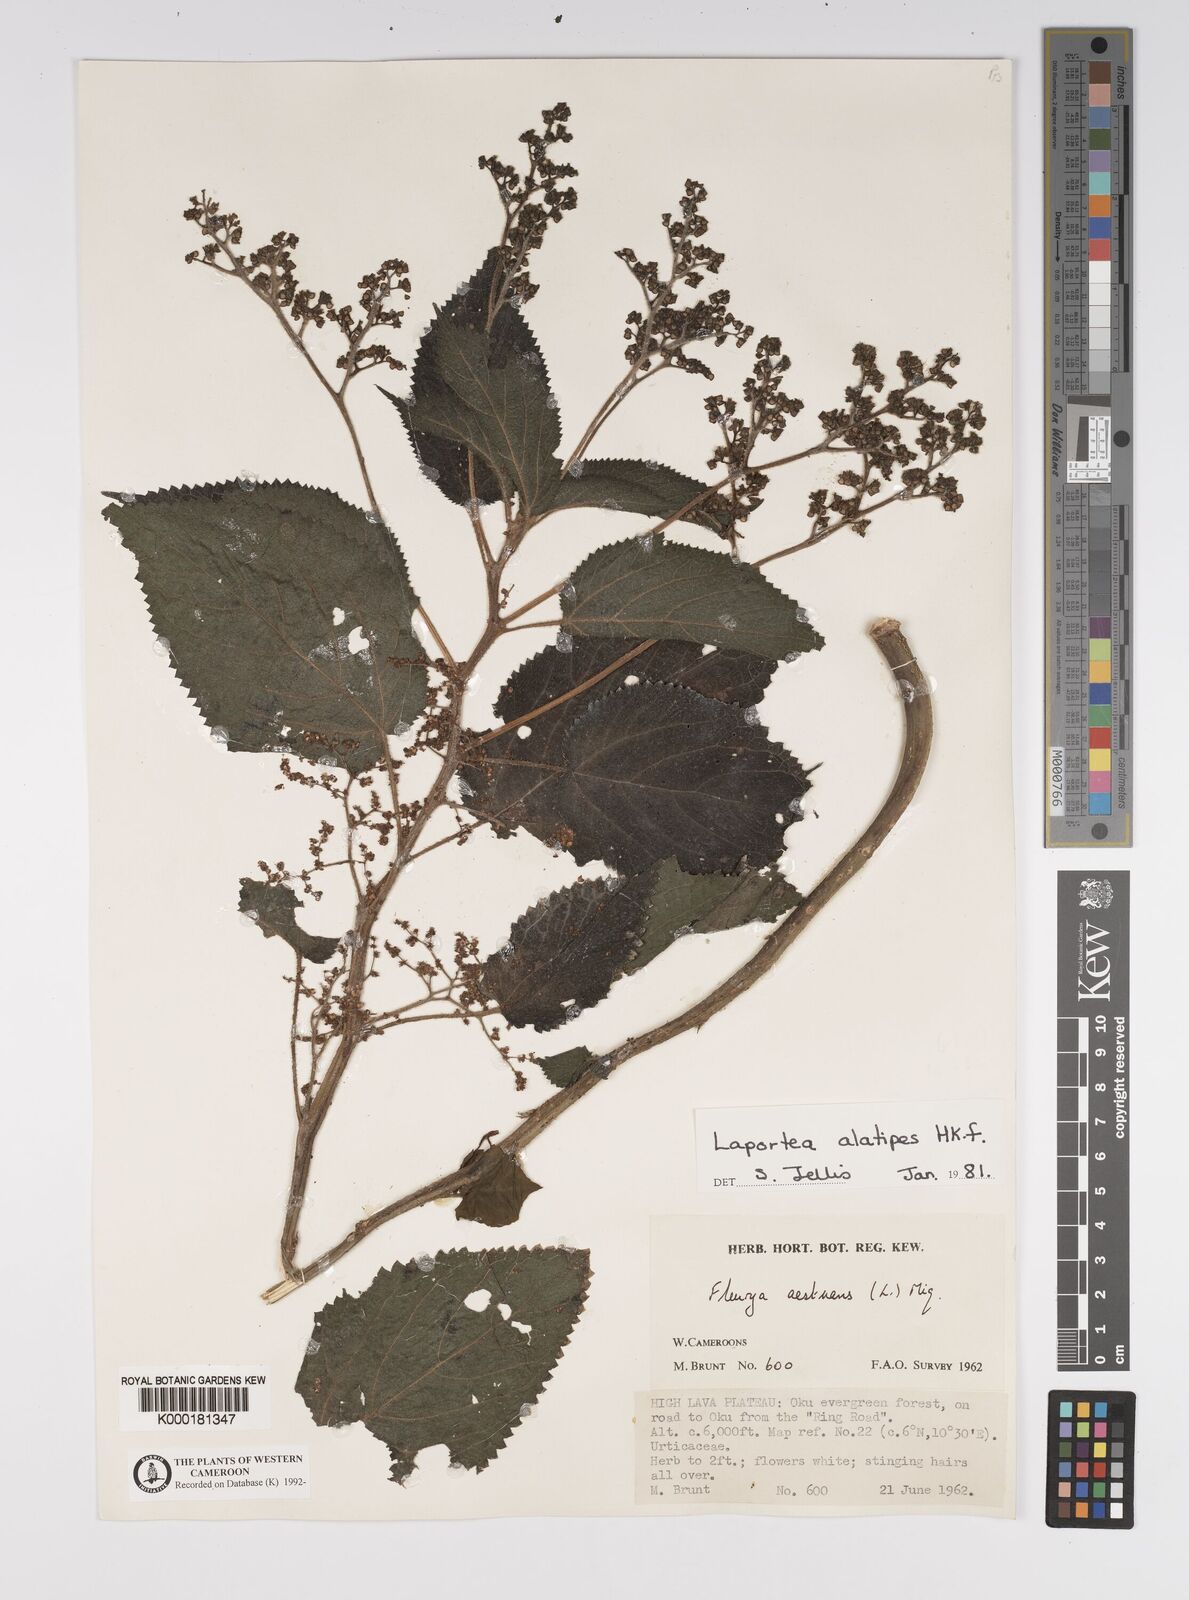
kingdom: Plantae
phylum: Tracheophyta
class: Magnoliopsida
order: Rosales
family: Urticaceae
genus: Laportea
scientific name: Laportea alatipes
